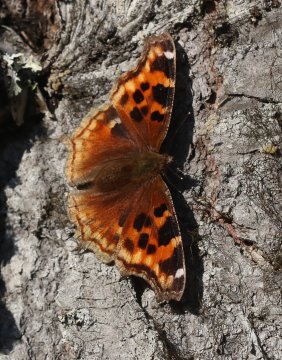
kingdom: Animalia
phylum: Arthropoda
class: Insecta
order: Lepidoptera
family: Nymphalidae
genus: Polygonia
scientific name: Polygonia vaualbum
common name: Compton Tortoiseshell
